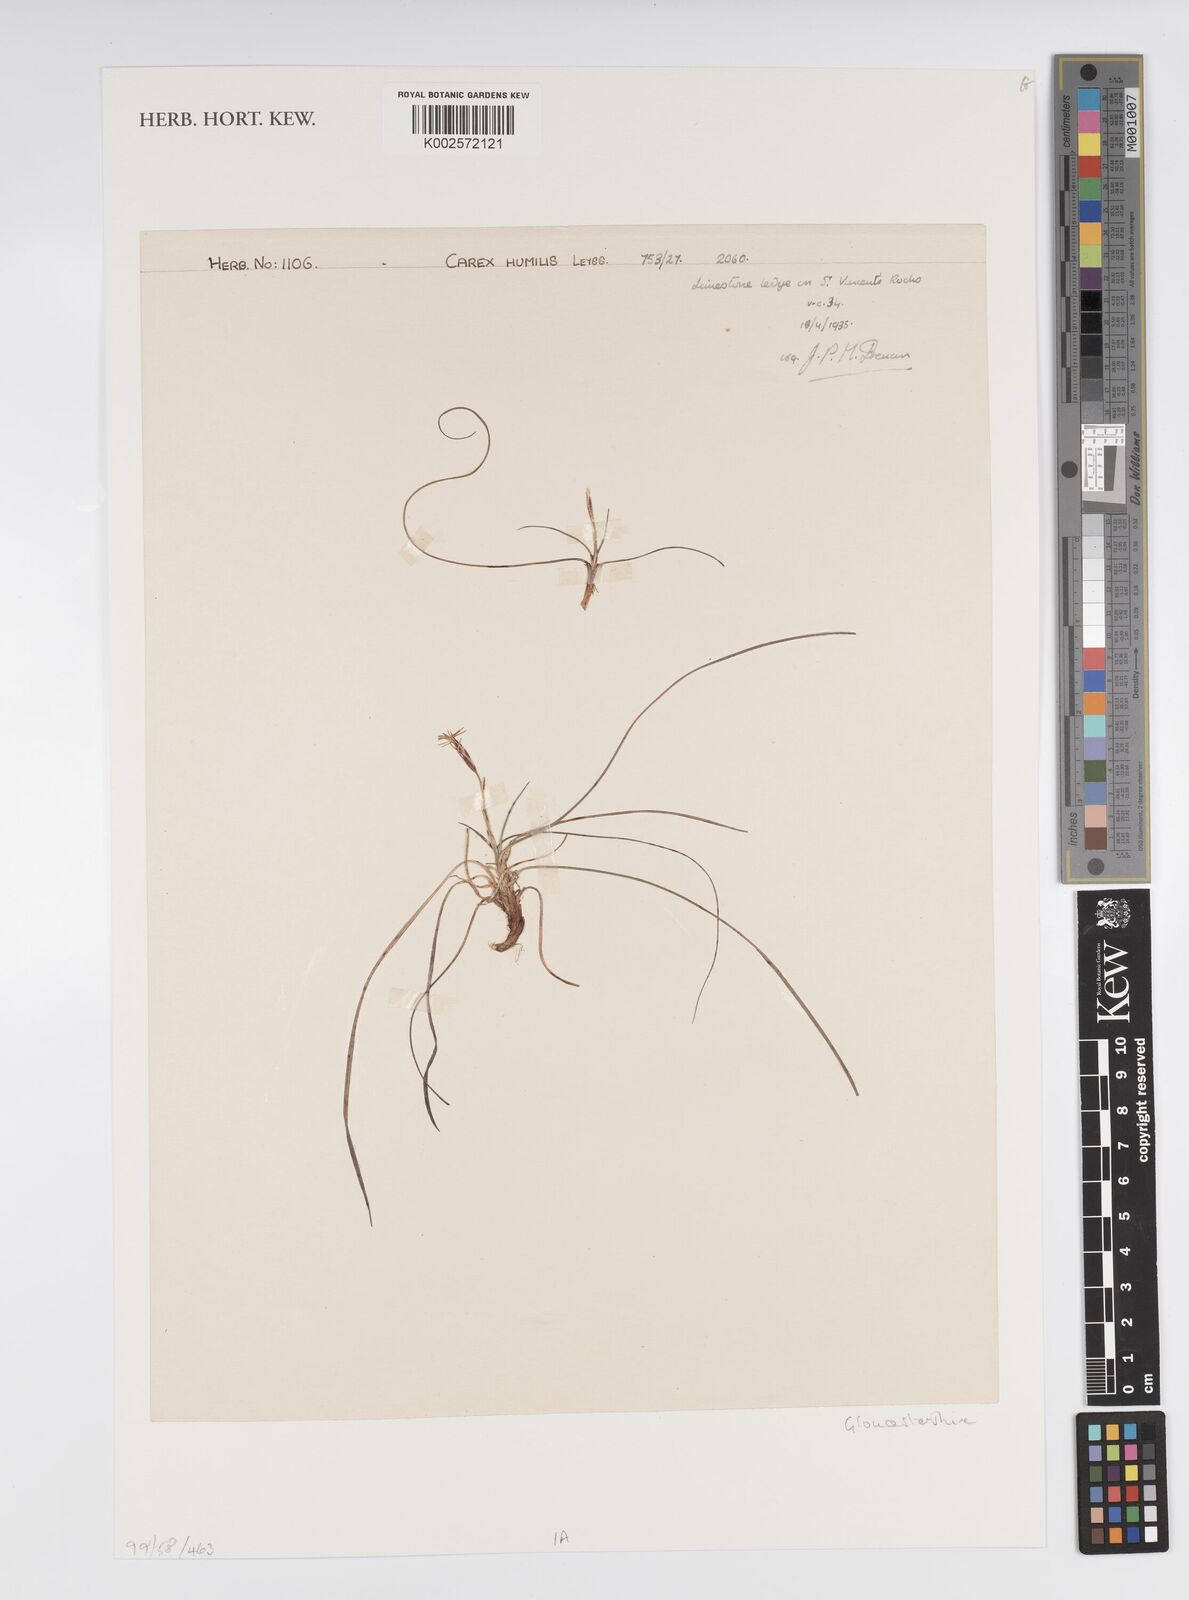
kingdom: Plantae
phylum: Tracheophyta
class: Liliopsida
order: Poales
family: Cyperaceae
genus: Carex
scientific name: Carex humilis
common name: Dwarf sedge
